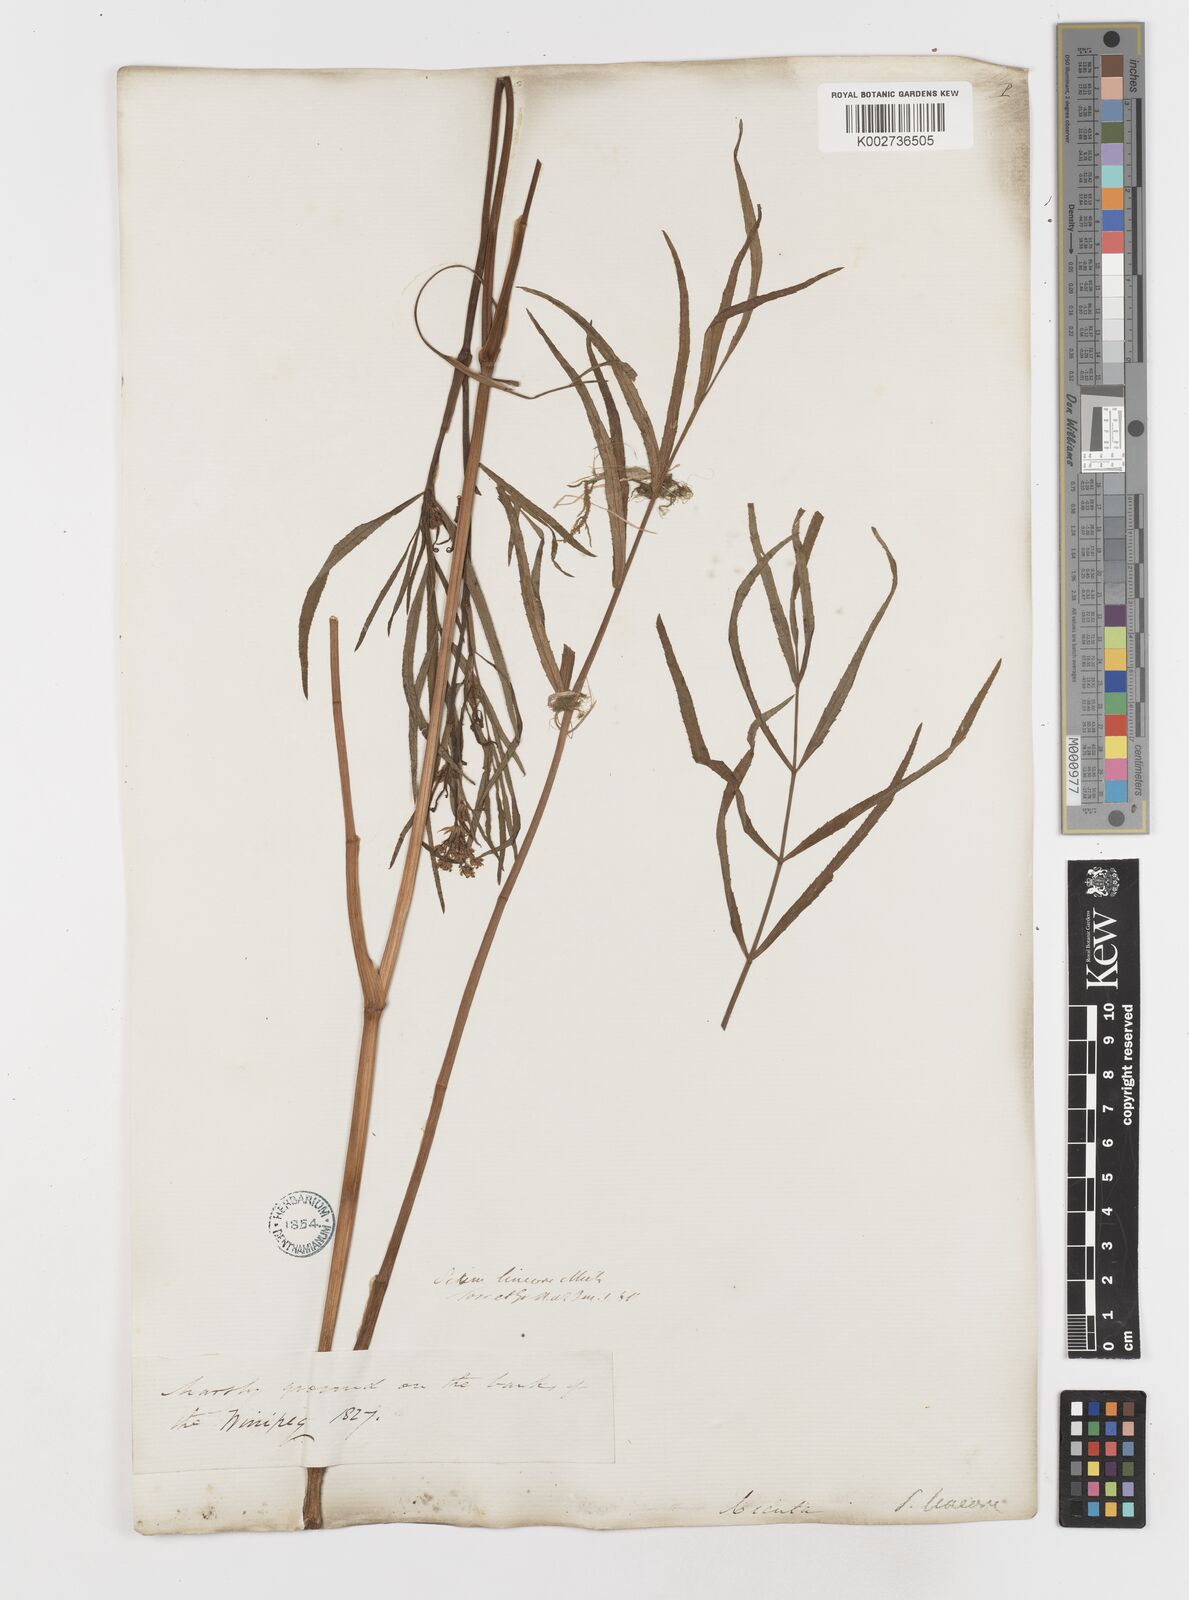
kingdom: Plantae
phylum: Tracheophyta
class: Magnoliopsida
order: Apiales
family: Apiaceae
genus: Sium
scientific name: Sium suave
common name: Hemlock water-parsnip
